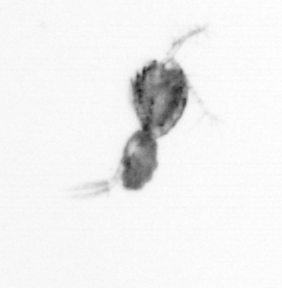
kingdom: Animalia
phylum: Arthropoda
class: Copepoda
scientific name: Copepoda
